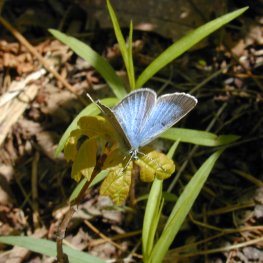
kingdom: Animalia
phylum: Arthropoda
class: Insecta
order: Lepidoptera
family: Lycaenidae
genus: Glaucopsyche
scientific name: Glaucopsyche lygdamus
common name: Silvery Blue
